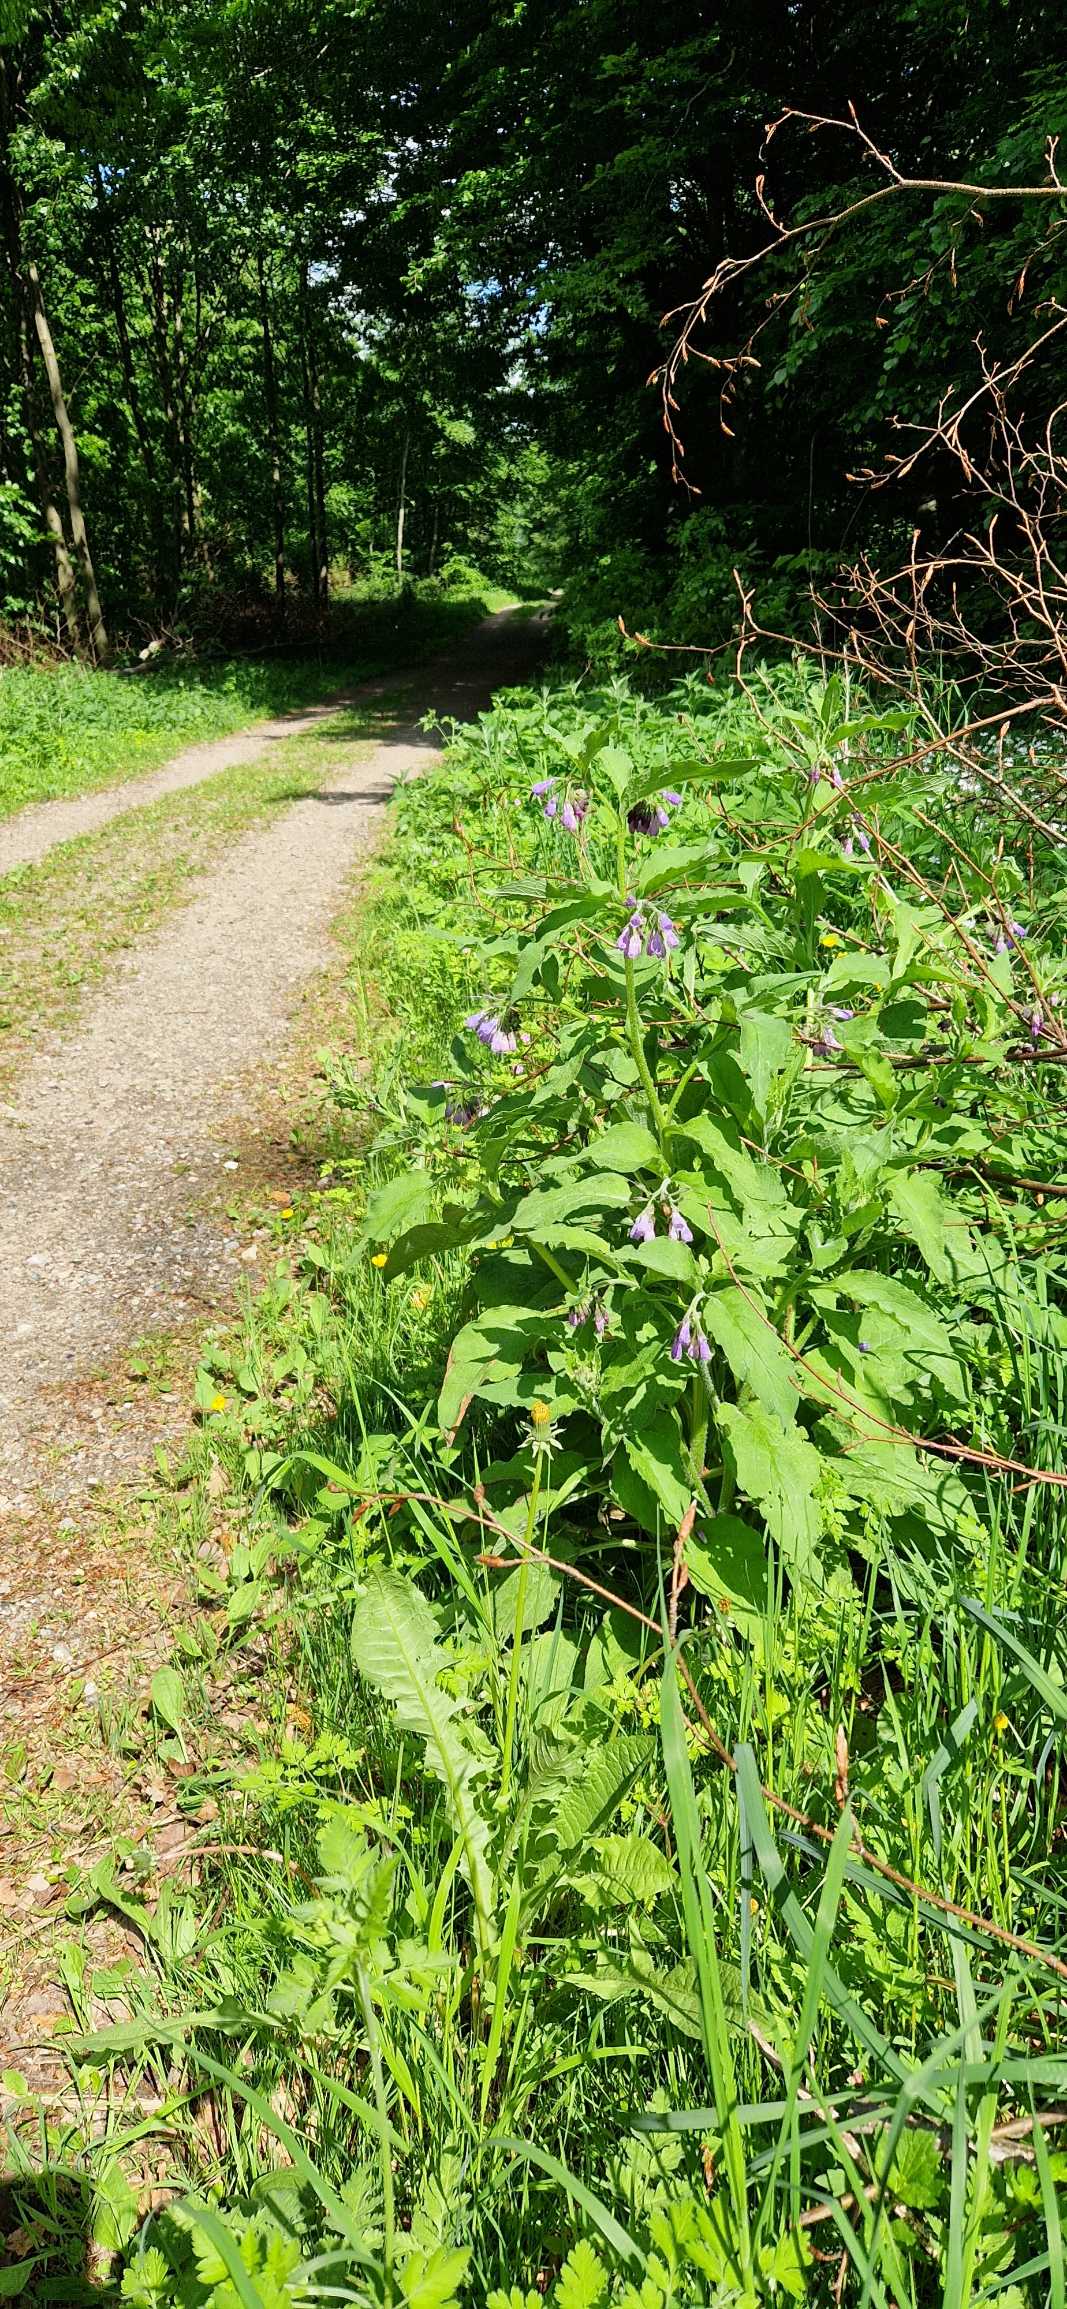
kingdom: Plantae
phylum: Tracheophyta
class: Magnoliopsida
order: Boraginales
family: Boraginaceae
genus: Symphytum
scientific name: Symphytum uplandicum
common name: Foder-kulsukker
